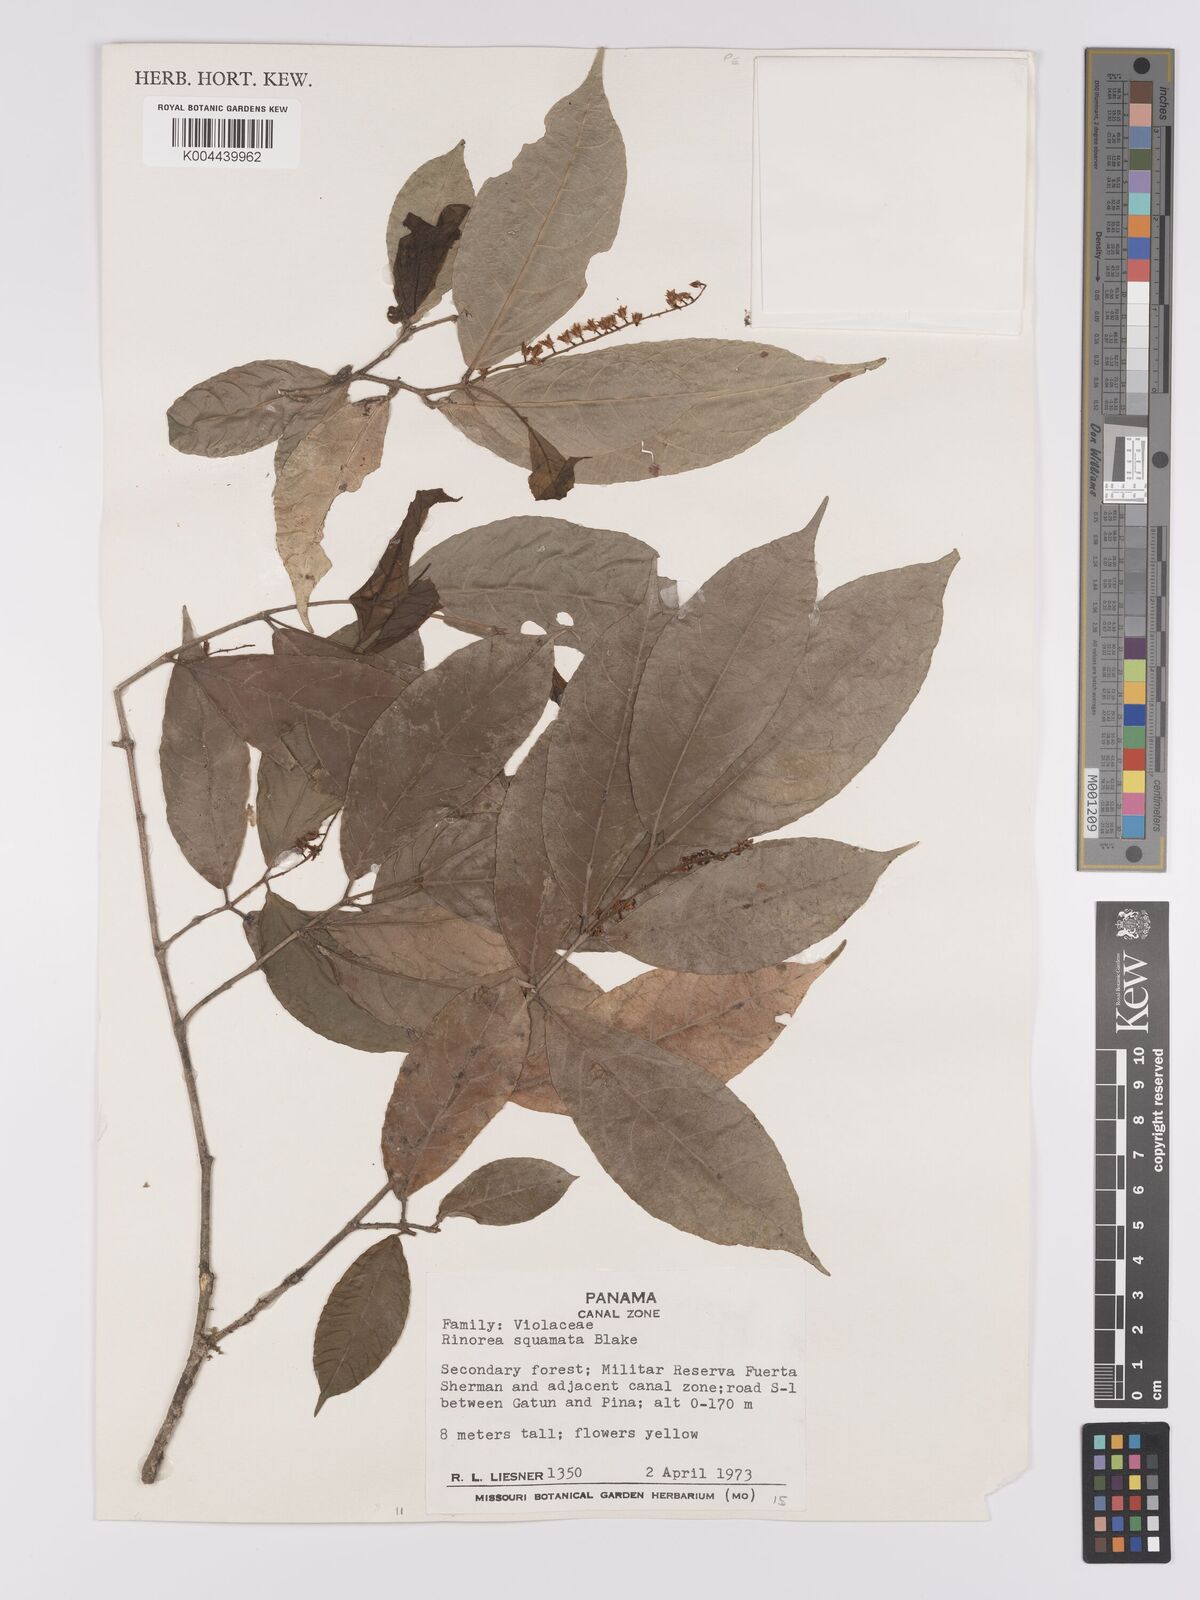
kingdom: Plantae
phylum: Tracheophyta
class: Magnoliopsida
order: Malpighiales
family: Violaceae
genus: Rinorea
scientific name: Rinorea squamata
